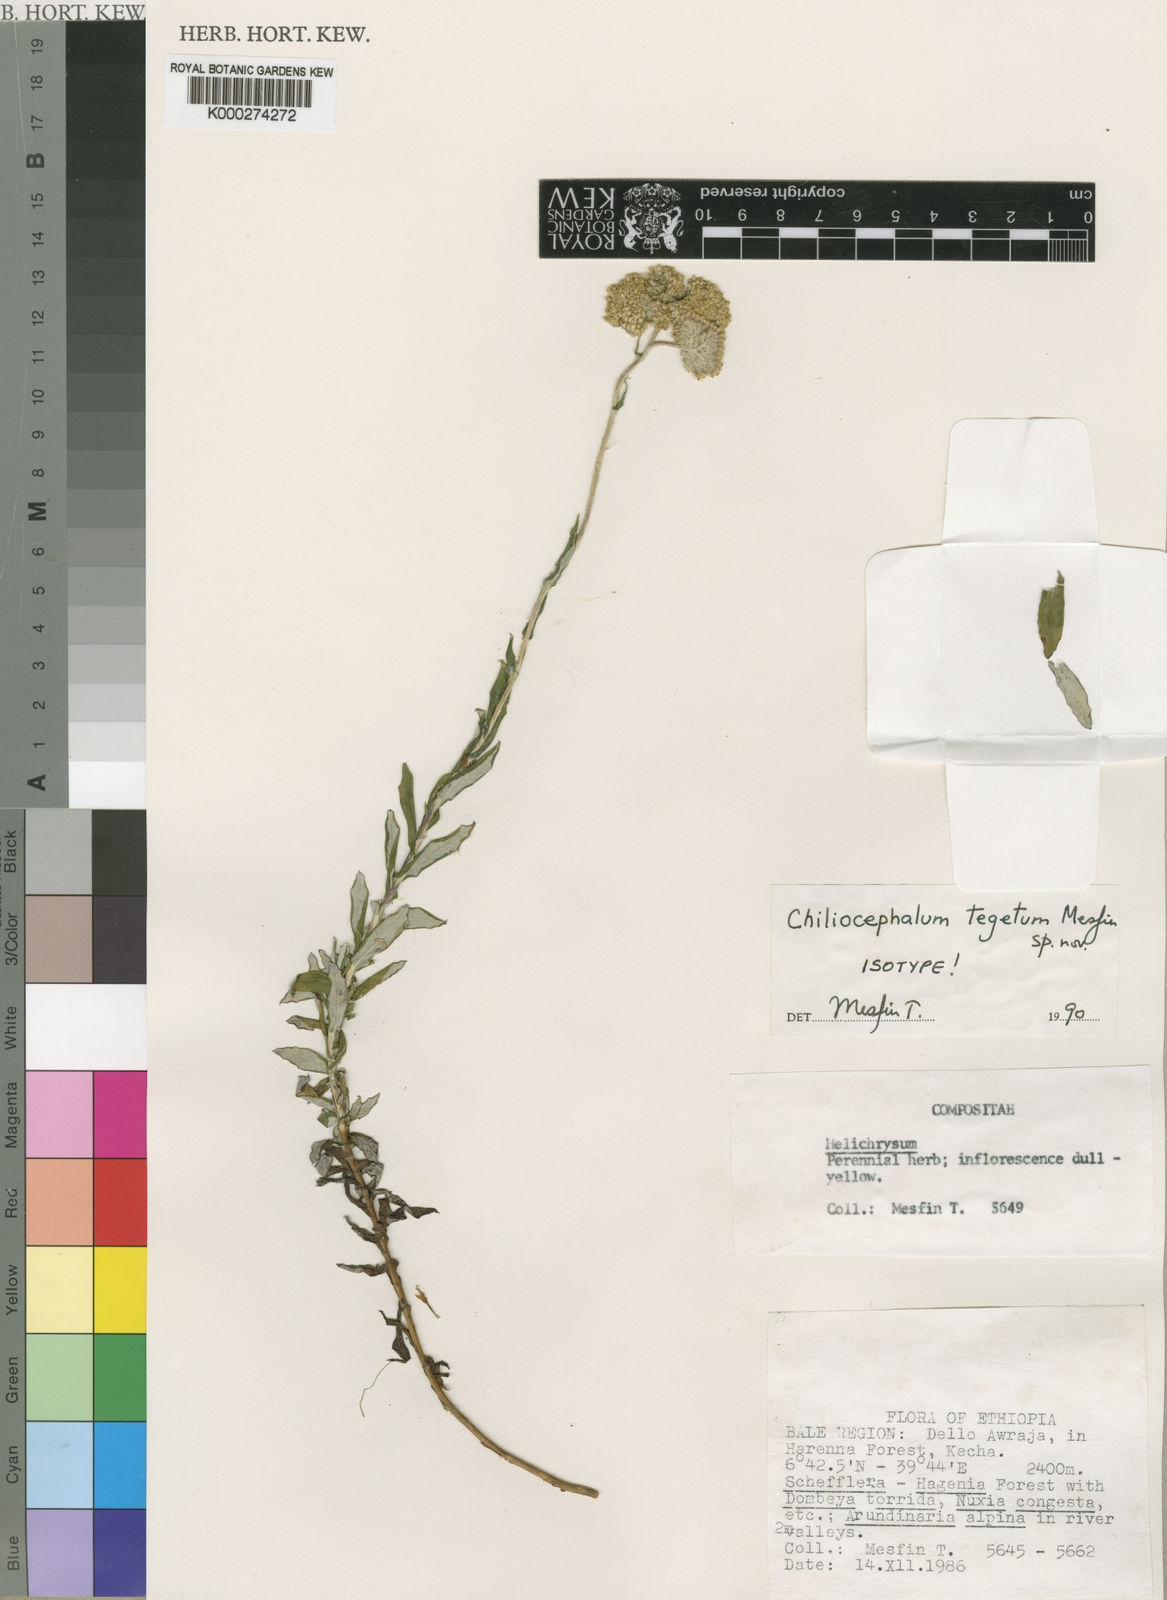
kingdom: Plantae
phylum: Tracheophyta
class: Magnoliopsida
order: Asterales
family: Asteraceae
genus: Chiliocephalum
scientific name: Chiliocephalum tegetum
